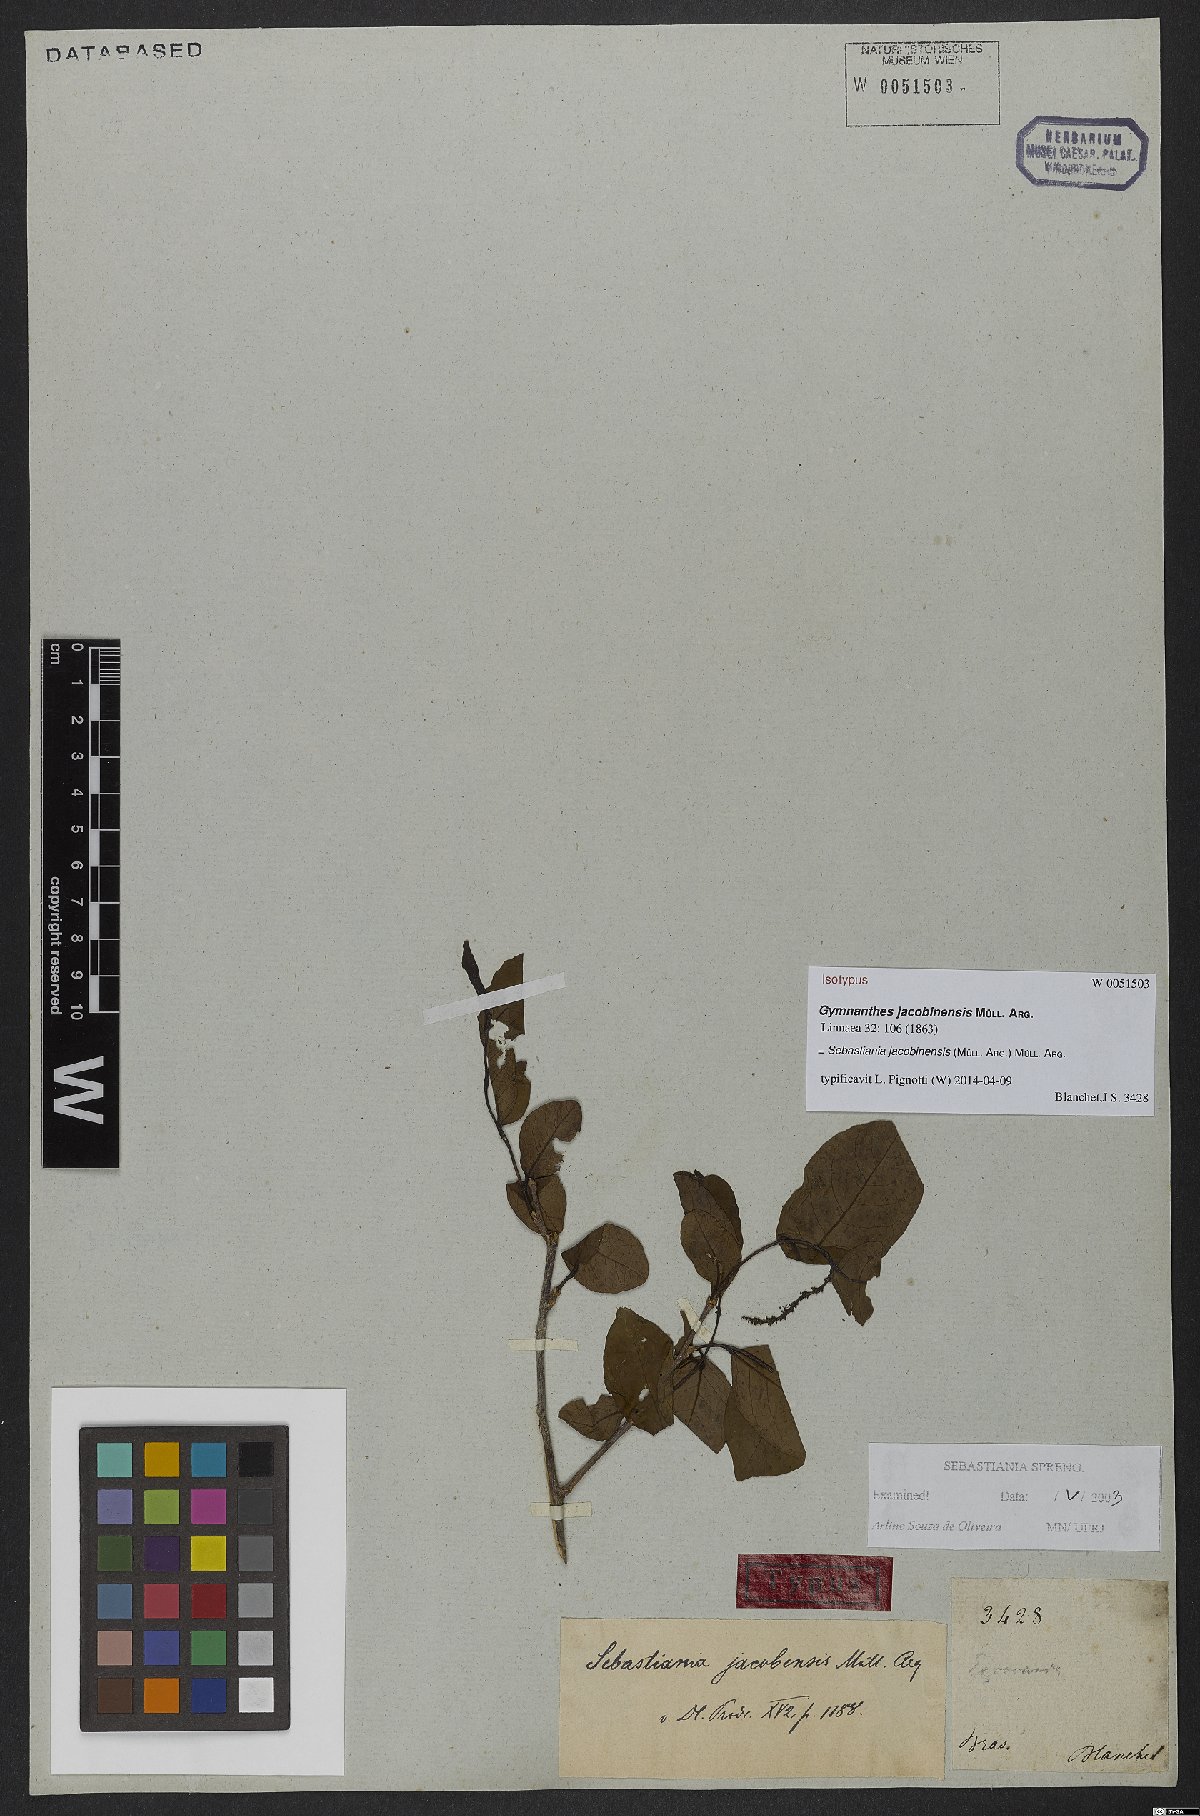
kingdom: Plantae
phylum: Tracheophyta
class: Magnoliopsida
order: Malpighiales
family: Euphorbiaceae
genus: Sebastiania
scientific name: Sebastiania jacobinensis
